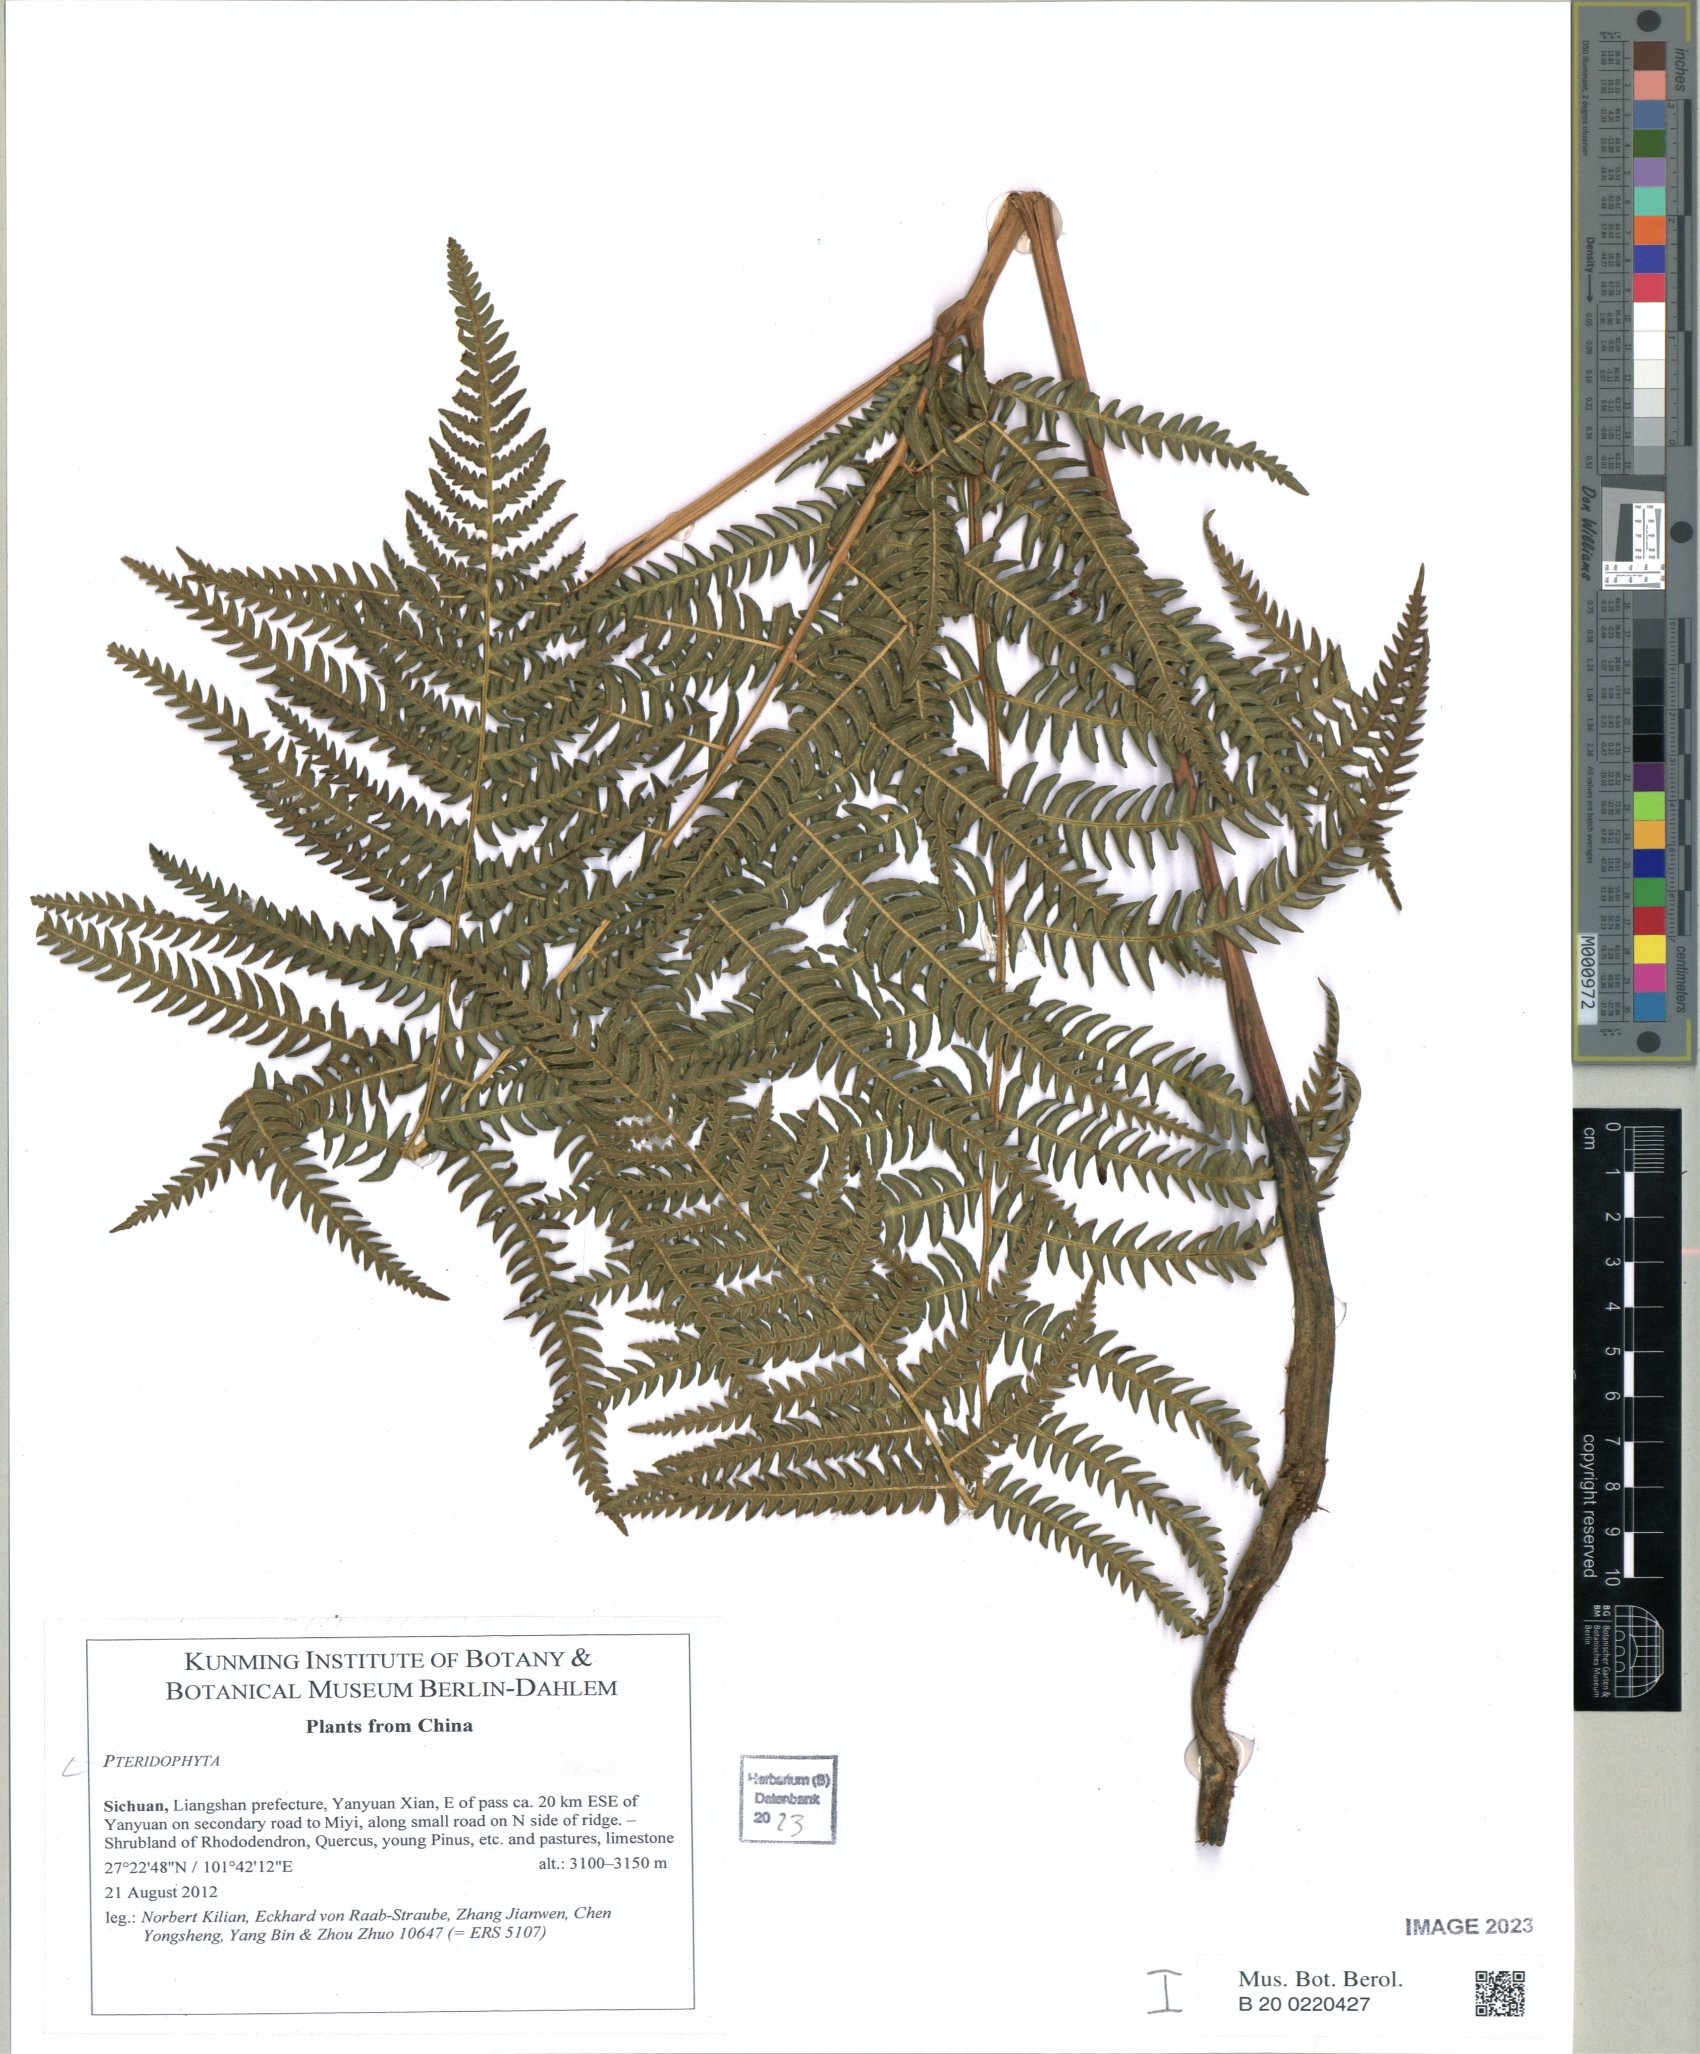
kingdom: Plantae
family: Pteridophyta
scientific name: Pteridophyta
